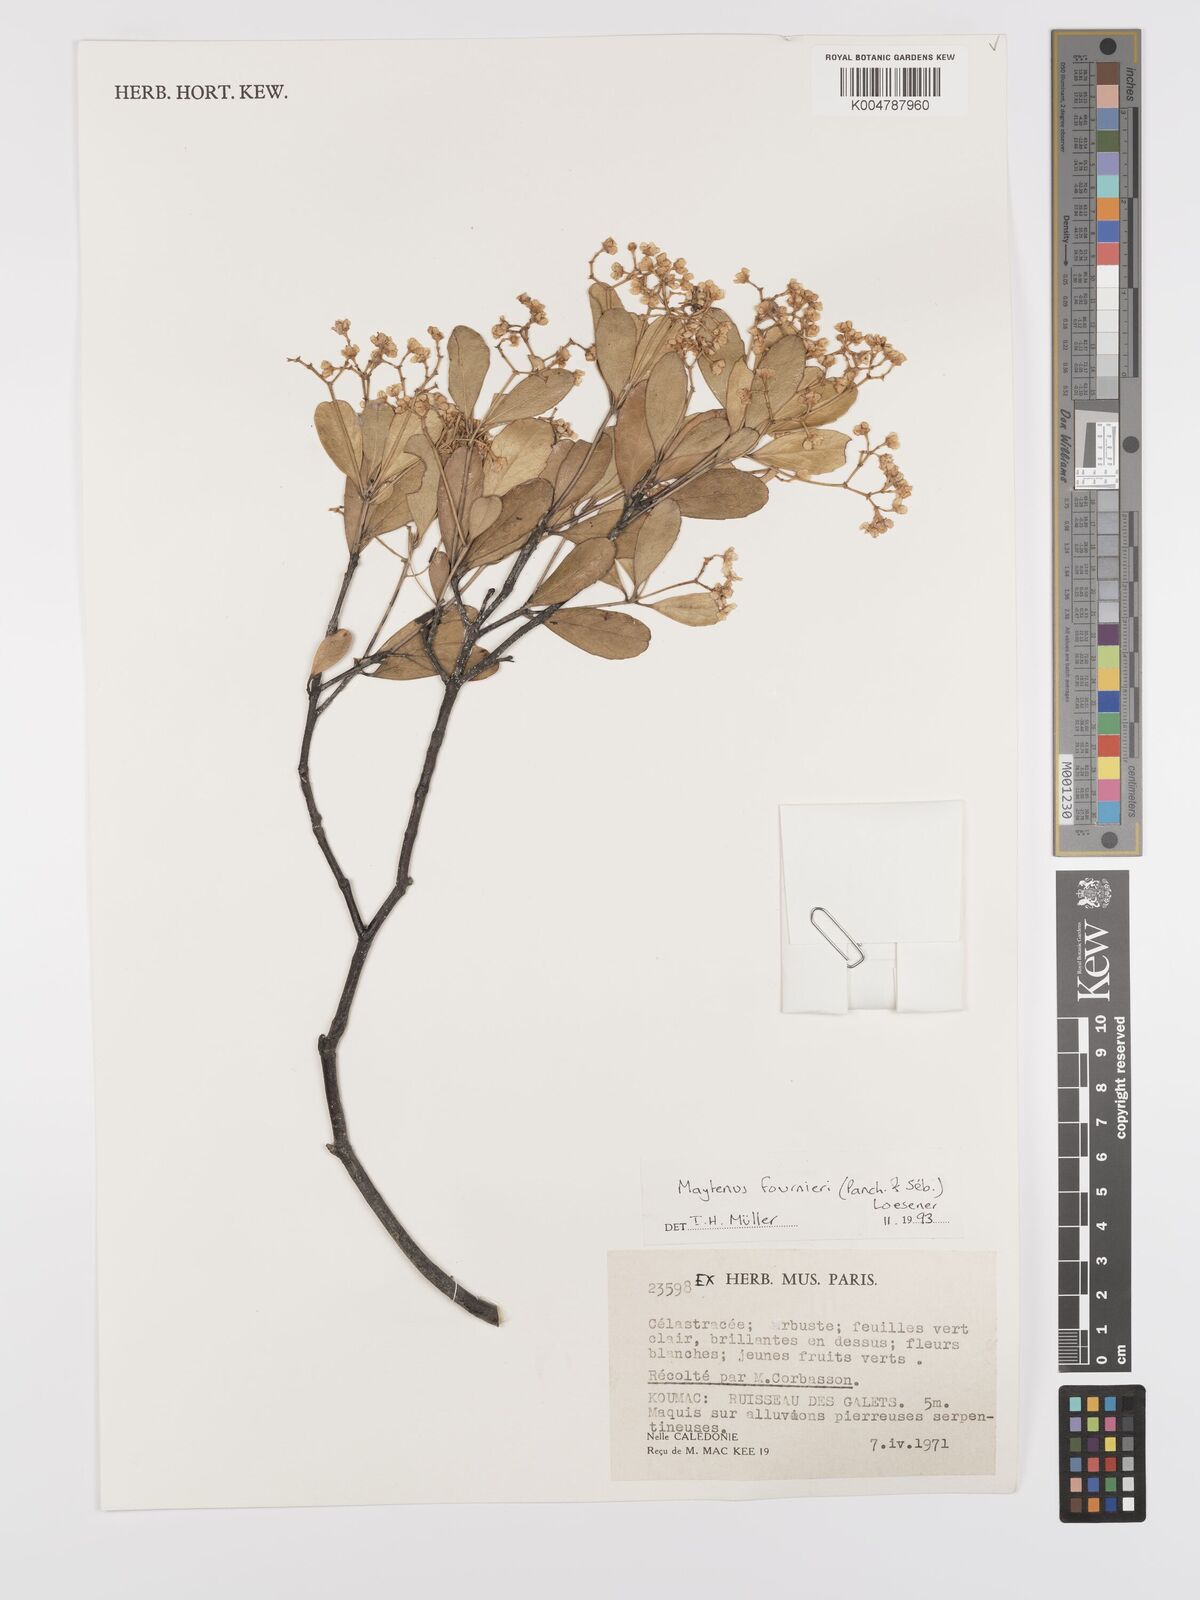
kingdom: Plantae
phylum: Tracheophyta
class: Magnoliopsida
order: Celastrales
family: Celastraceae
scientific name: Celastraceae
